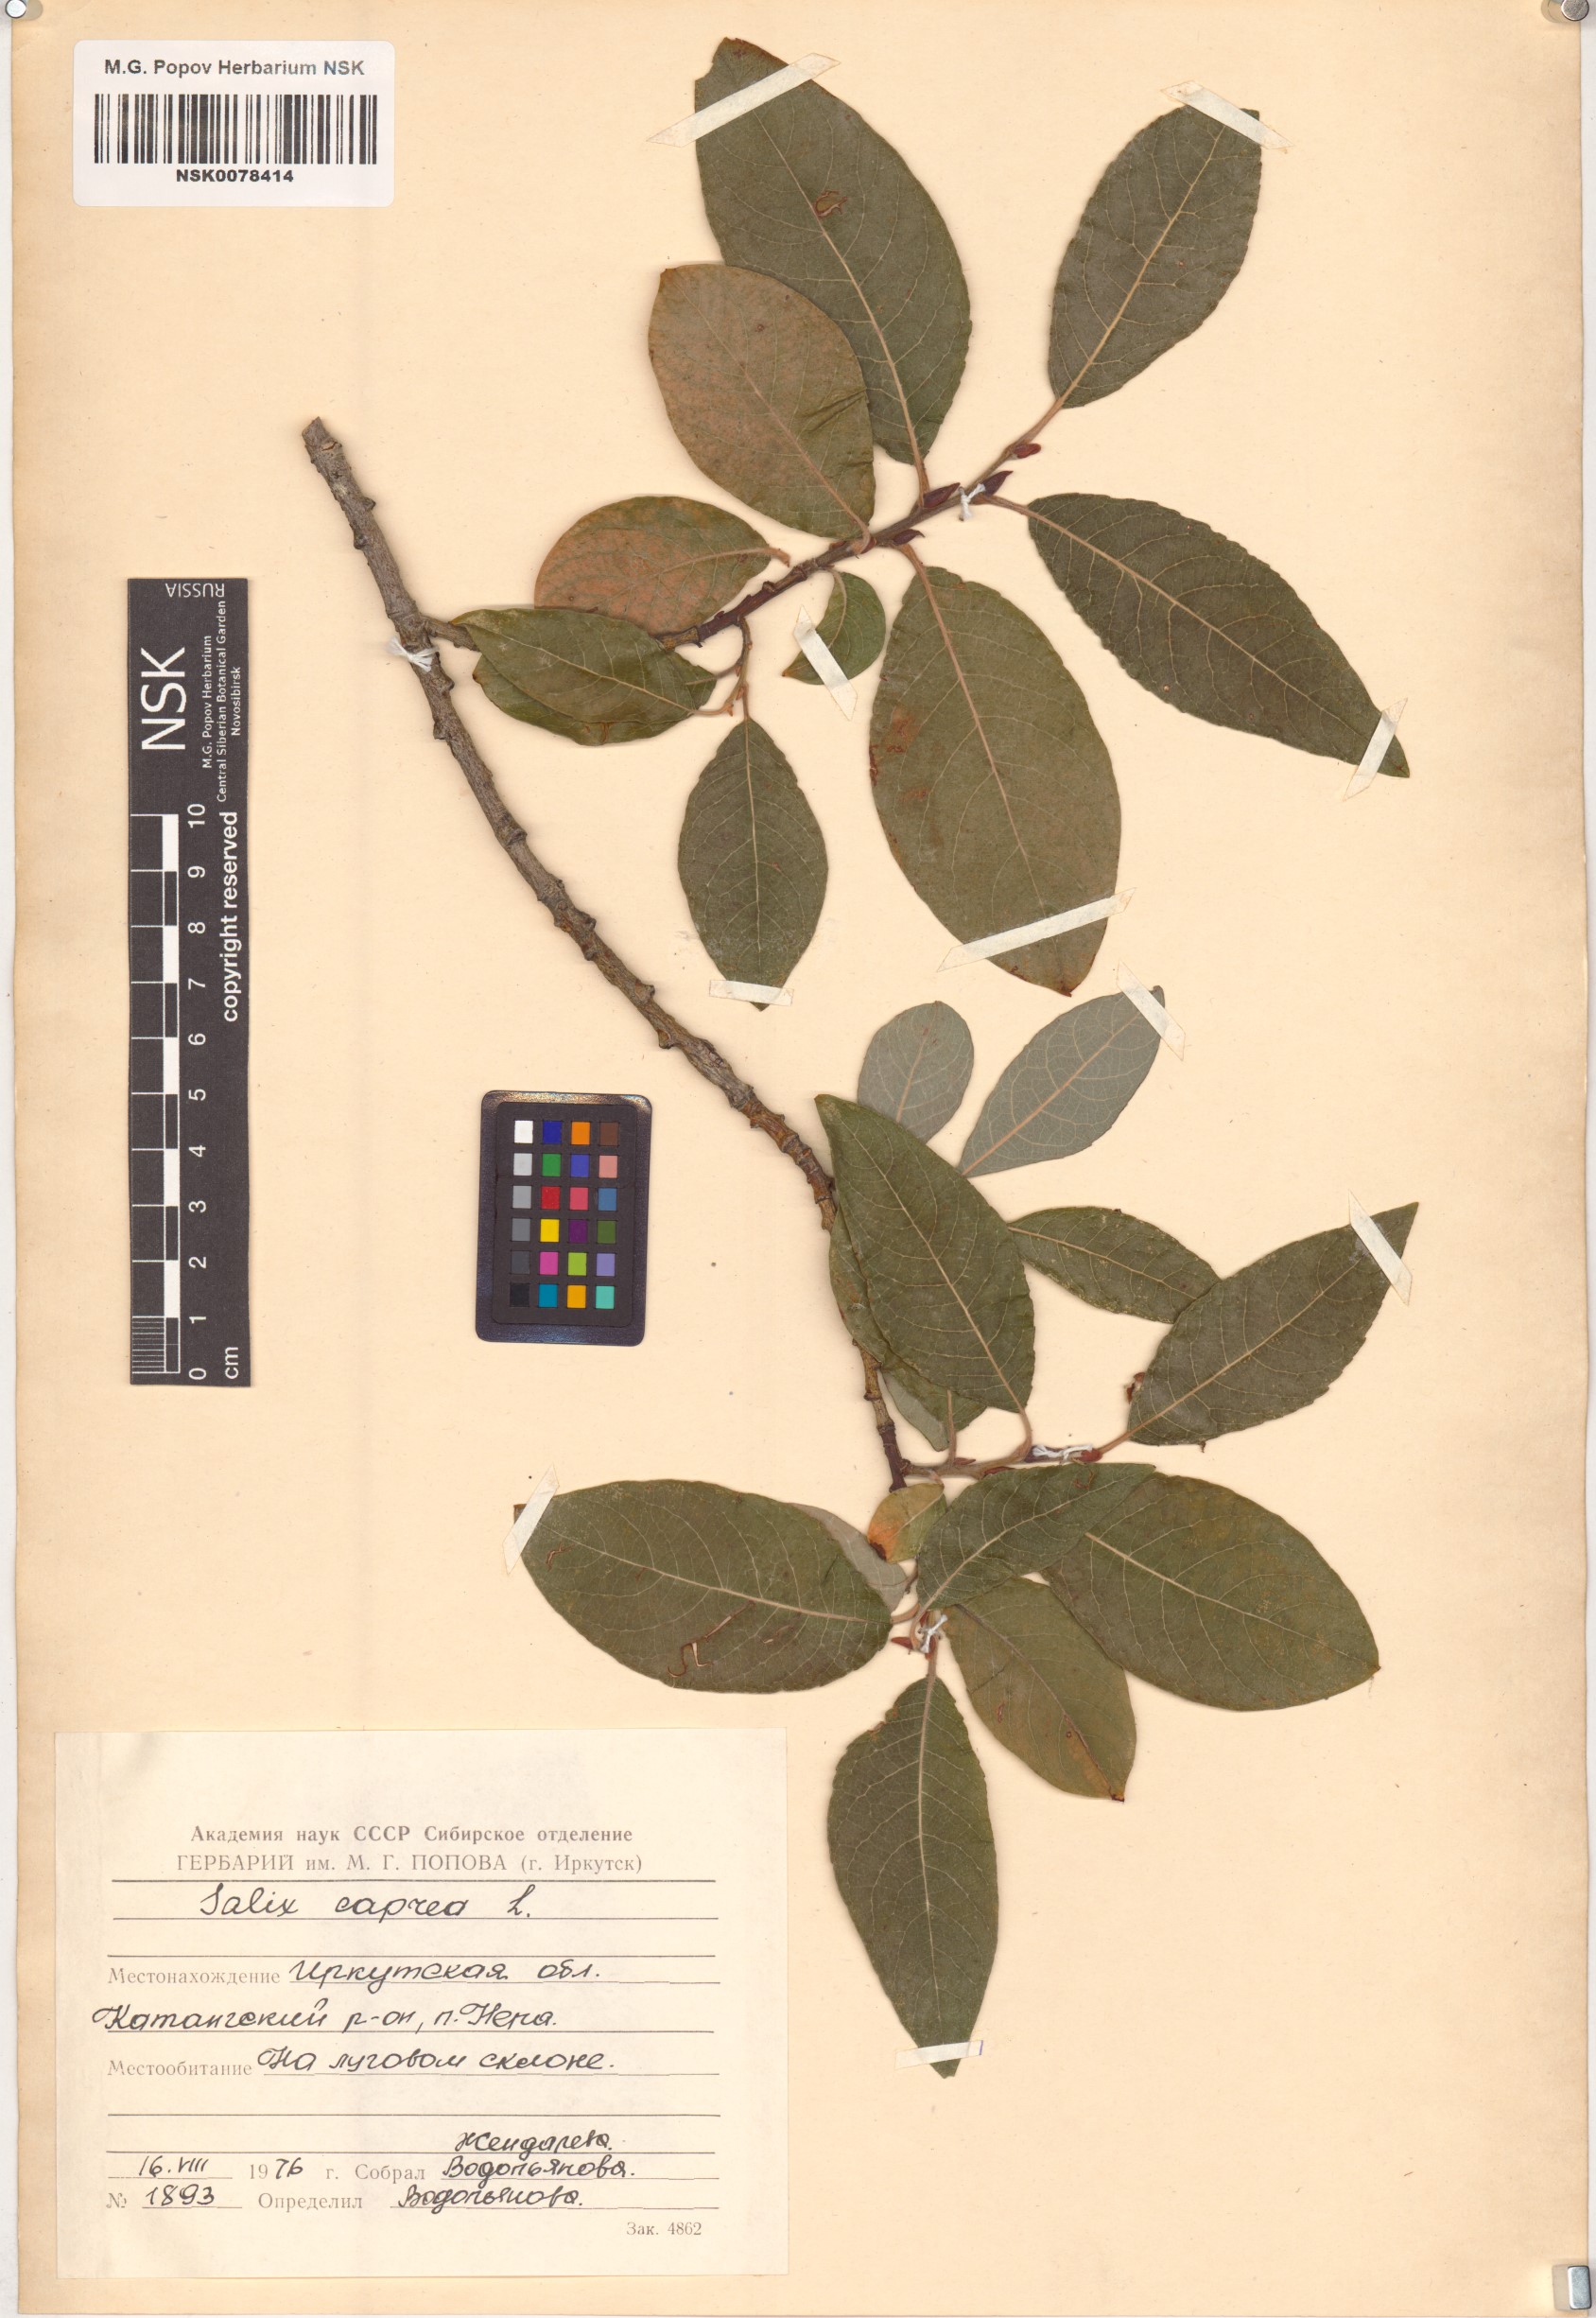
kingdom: Plantae
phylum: Tracheophyta
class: Magnoliopsida
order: Malpighiales
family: Salicaceae
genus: Salix
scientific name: Salix caprea
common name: Goat willow
